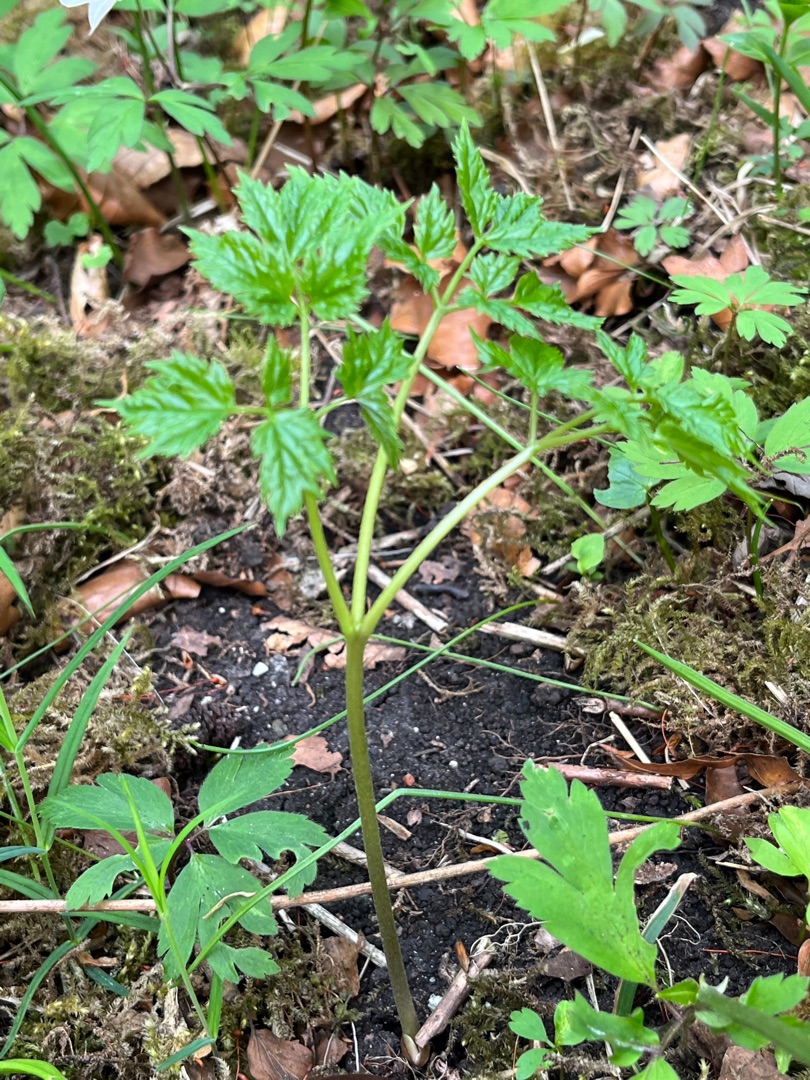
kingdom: Plantae
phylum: Tracheophyta
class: Magnoliopsida
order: Ranunculales
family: Ranunculaceae
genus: Actaea
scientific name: Actaea spicata
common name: Druemunke
